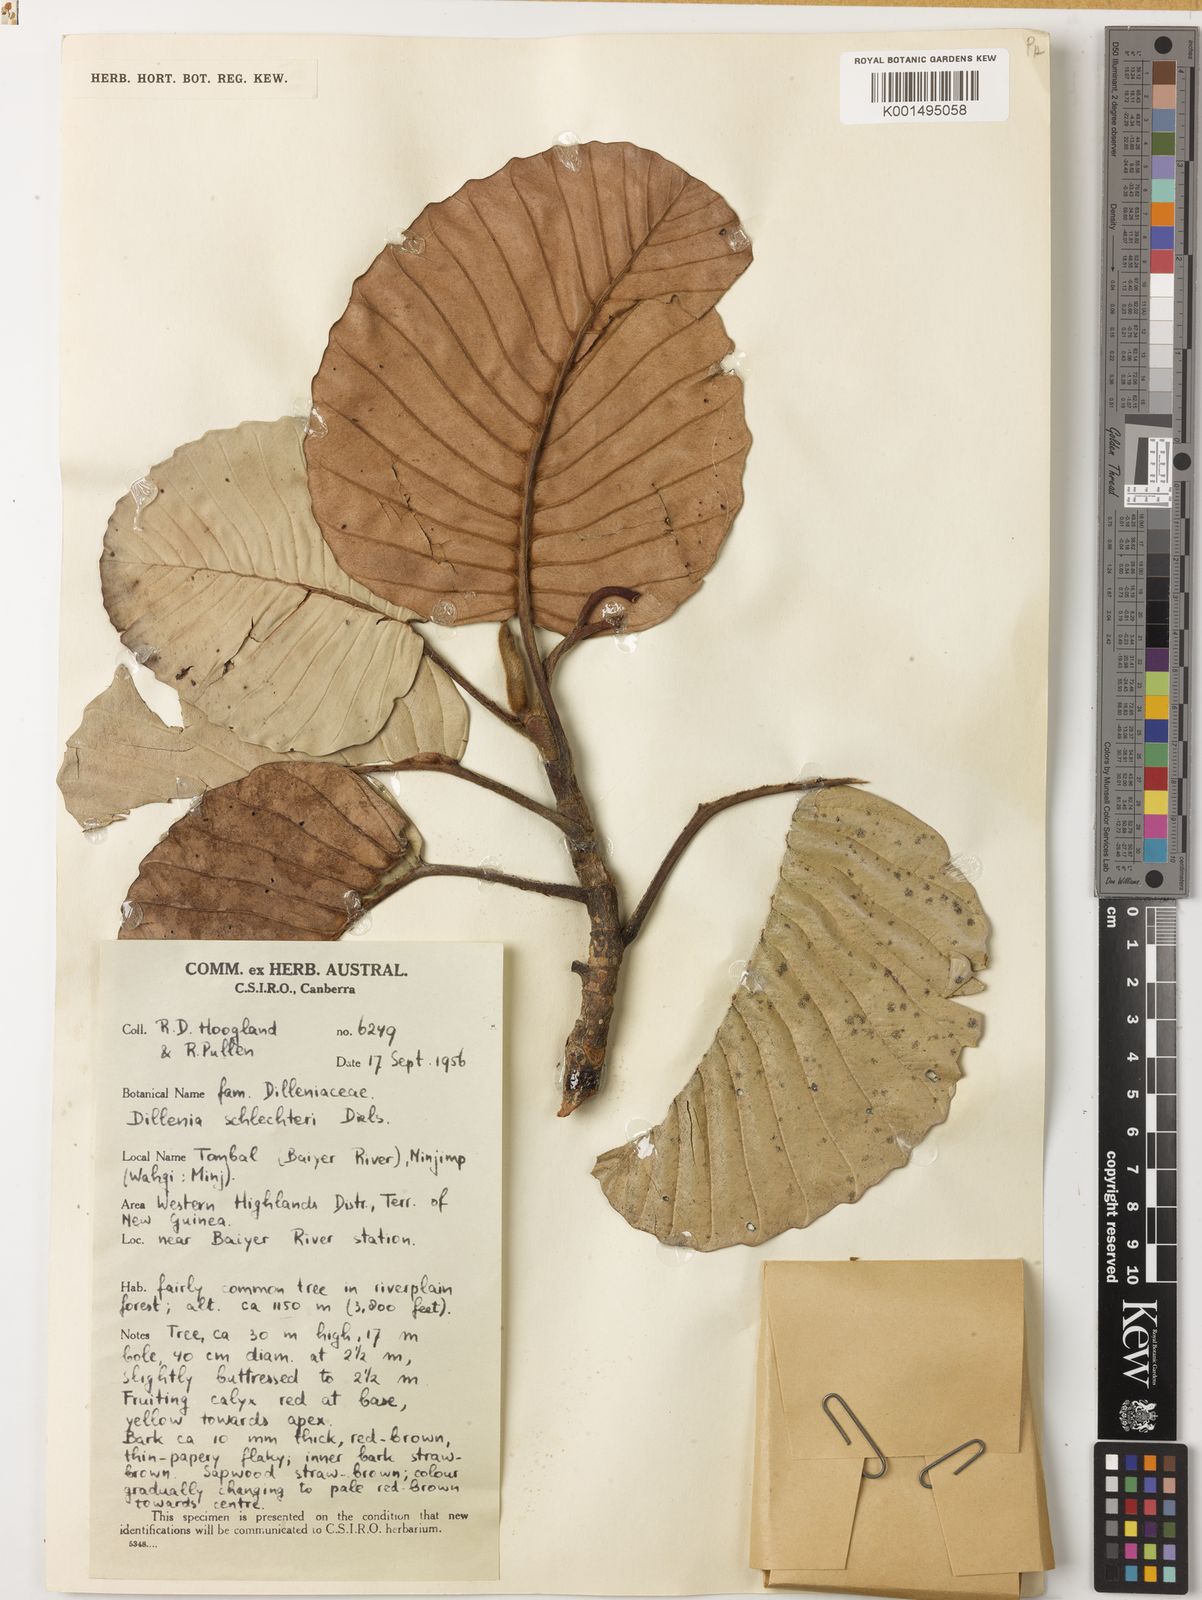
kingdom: Plantae
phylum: Tracheophyta
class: Magnoliopsida
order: Dilleniales
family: Dilleniaceae
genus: Dillenia
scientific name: Dillenia schlechteri
